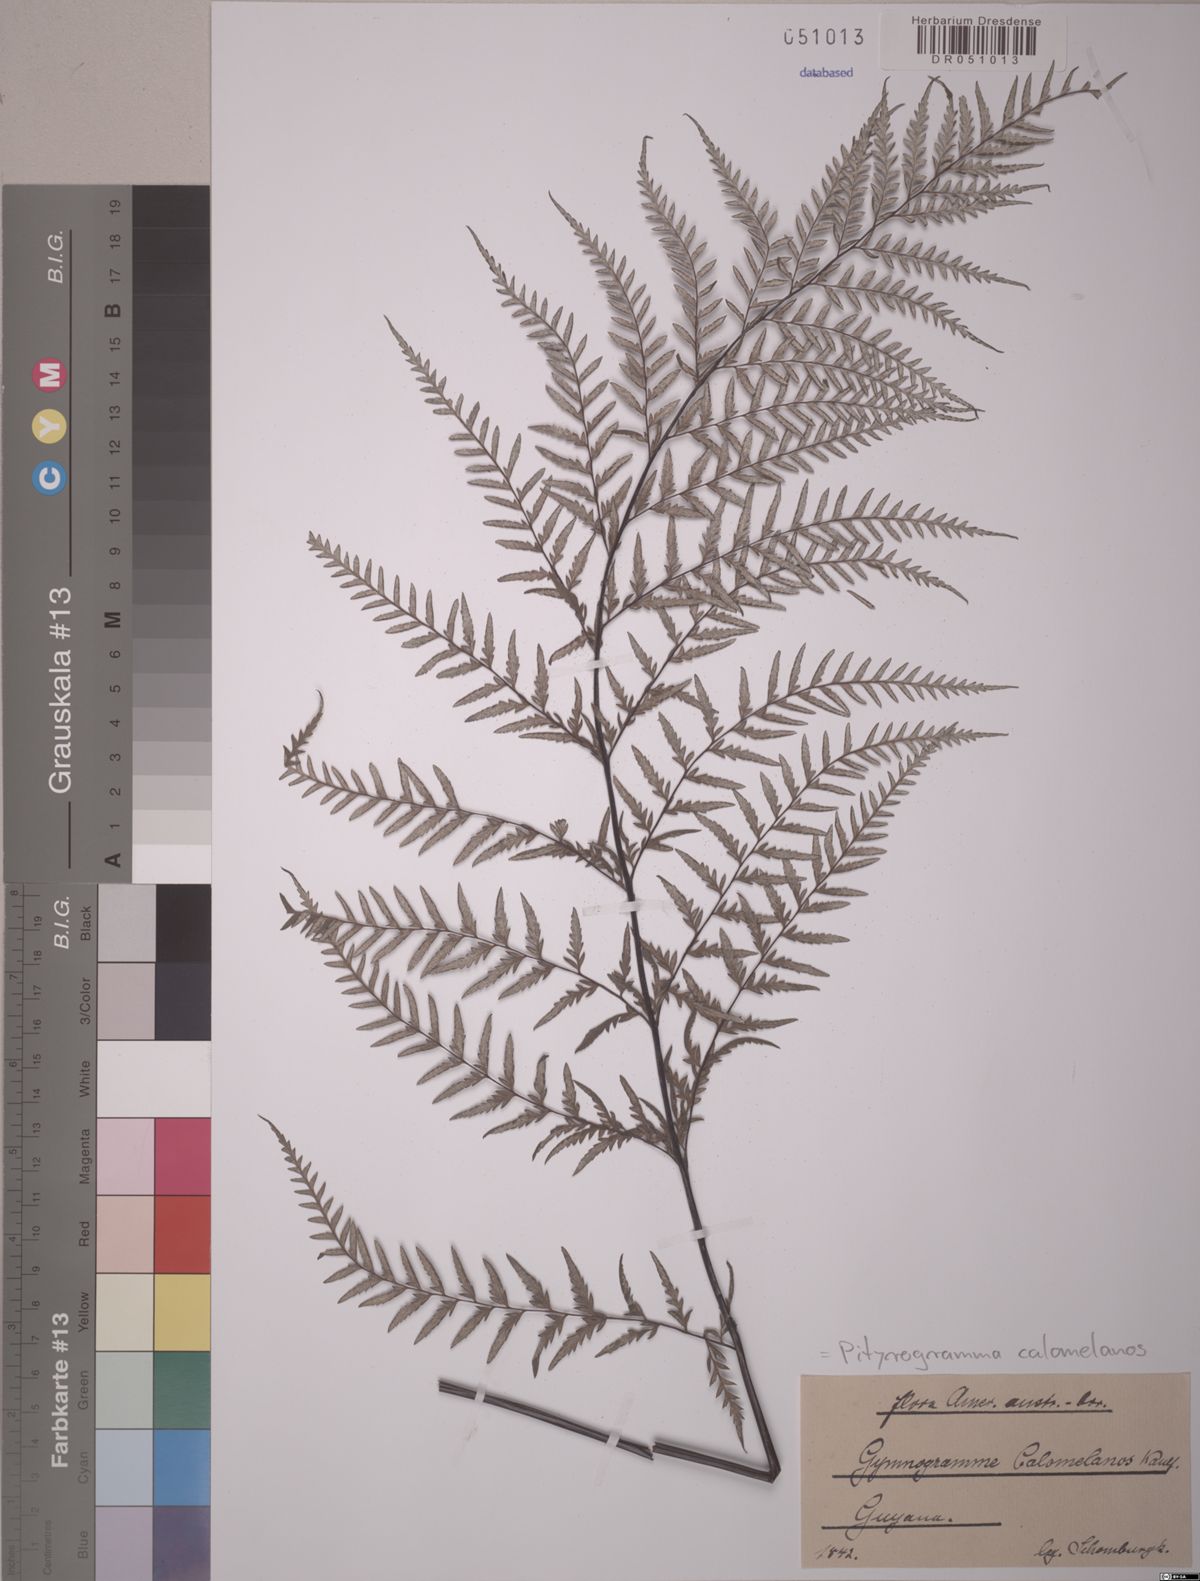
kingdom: Plantae
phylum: Tracheophyta
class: Polypodiopsida
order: Polypodiales
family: Pteridaceae
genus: Pityrogramma
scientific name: Pityrogramma calomelanos
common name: Dixie silverback fern
